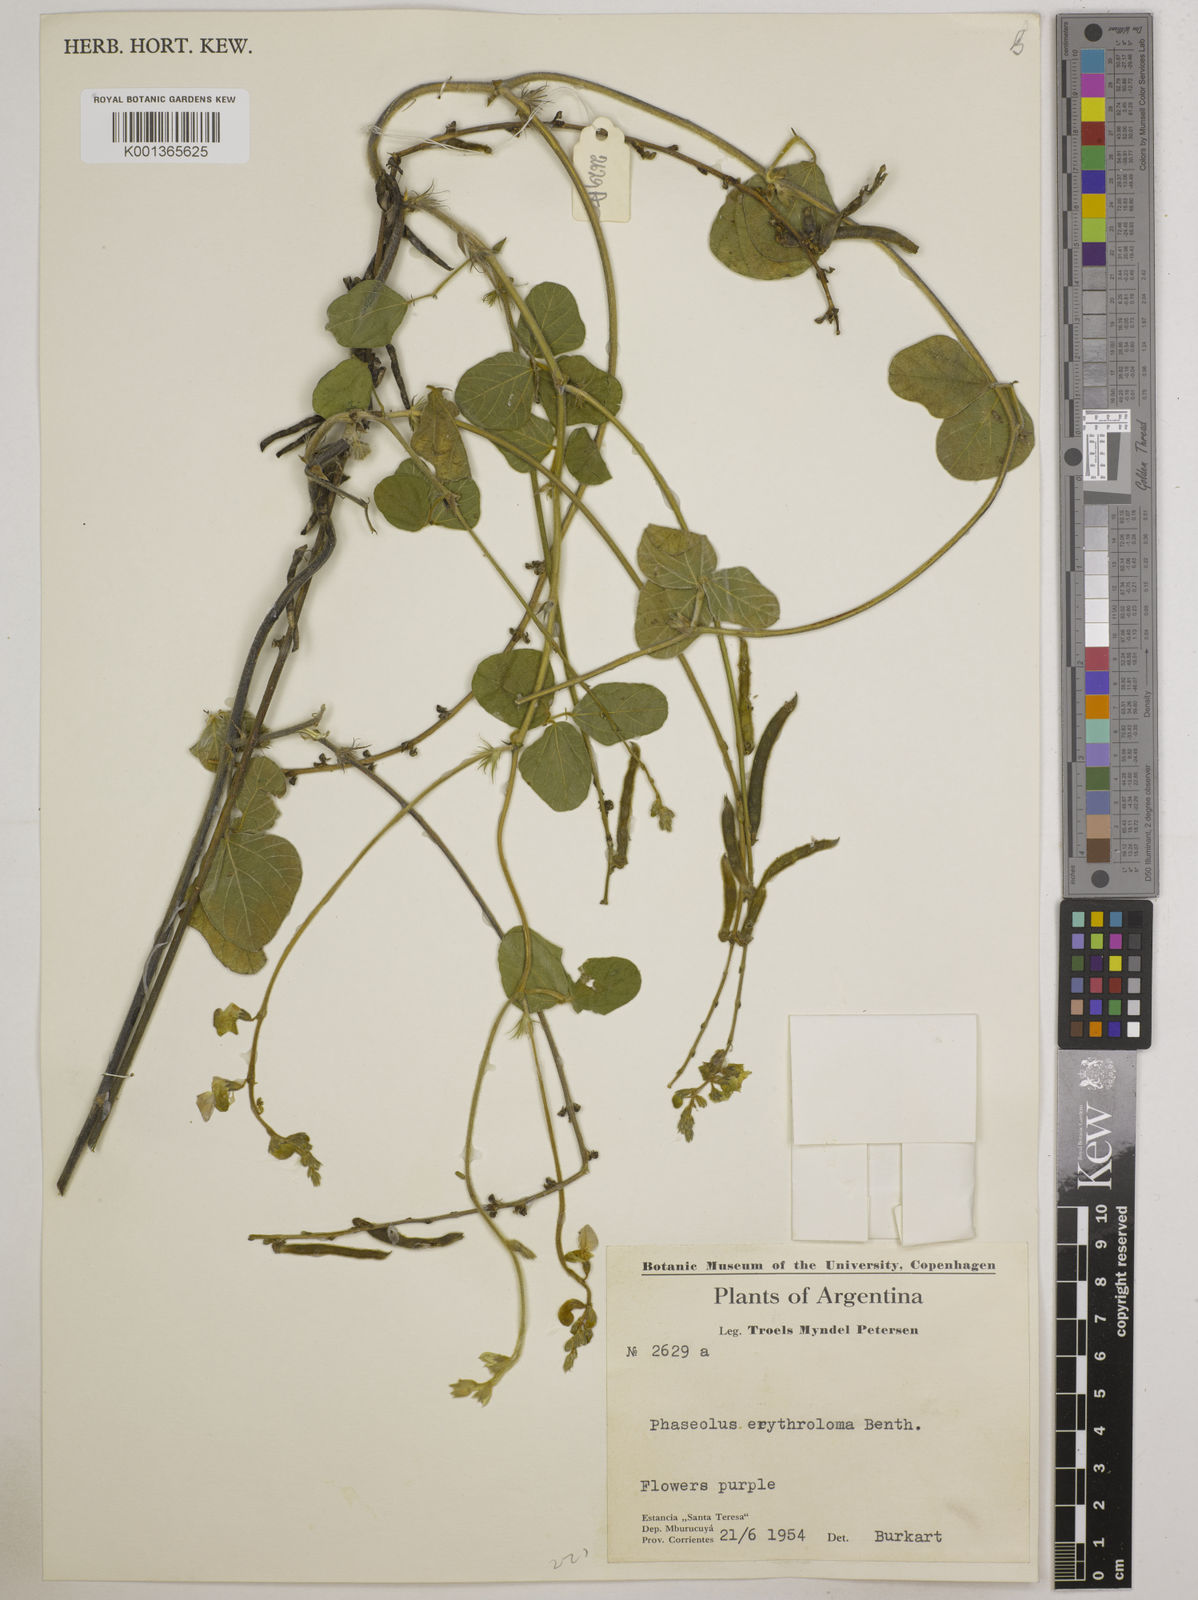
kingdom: Plantae
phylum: Tracheophyta
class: Magnoliopsida
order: Fabales
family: Fabaceae
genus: Macroptilium
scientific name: Macroptilium erythroloma
